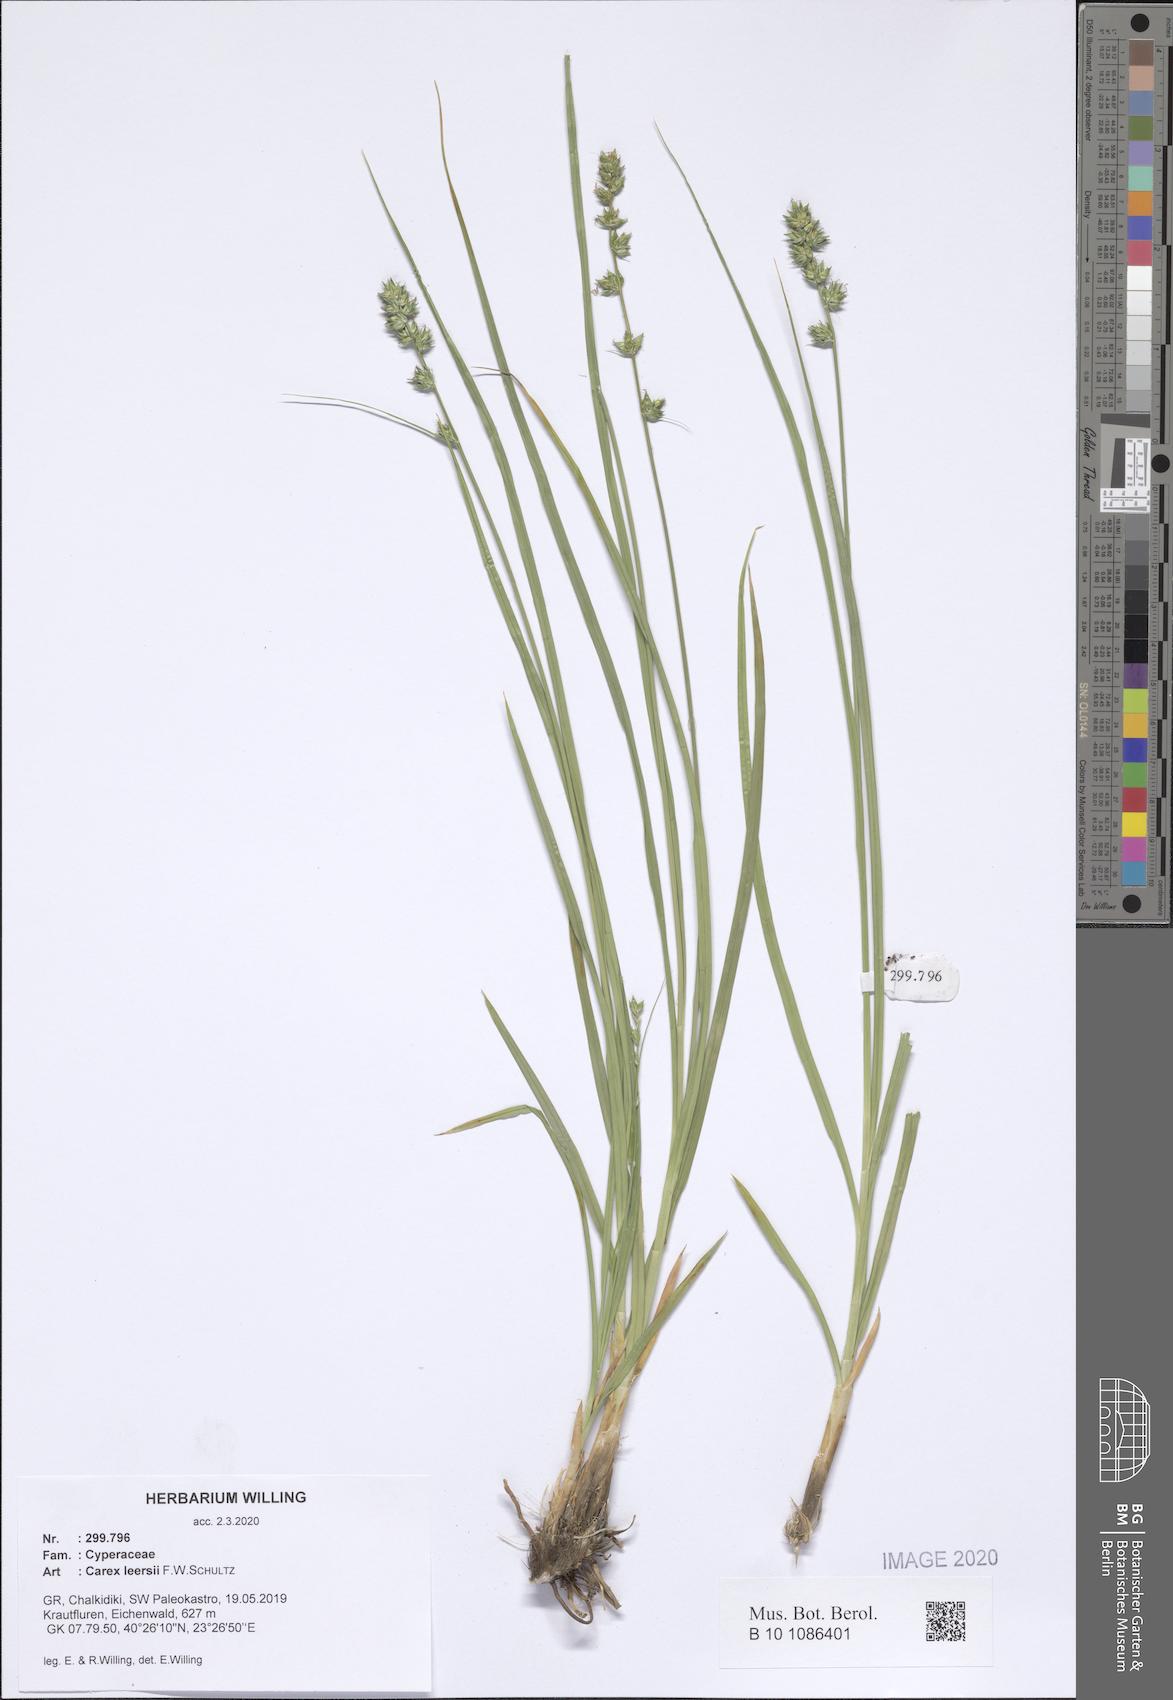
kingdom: Plantae
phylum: Tracheophyta
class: Liliopsida
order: Poales
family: Cyperaceae
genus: Carex
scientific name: Carex leersii
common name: Leers' sedge
